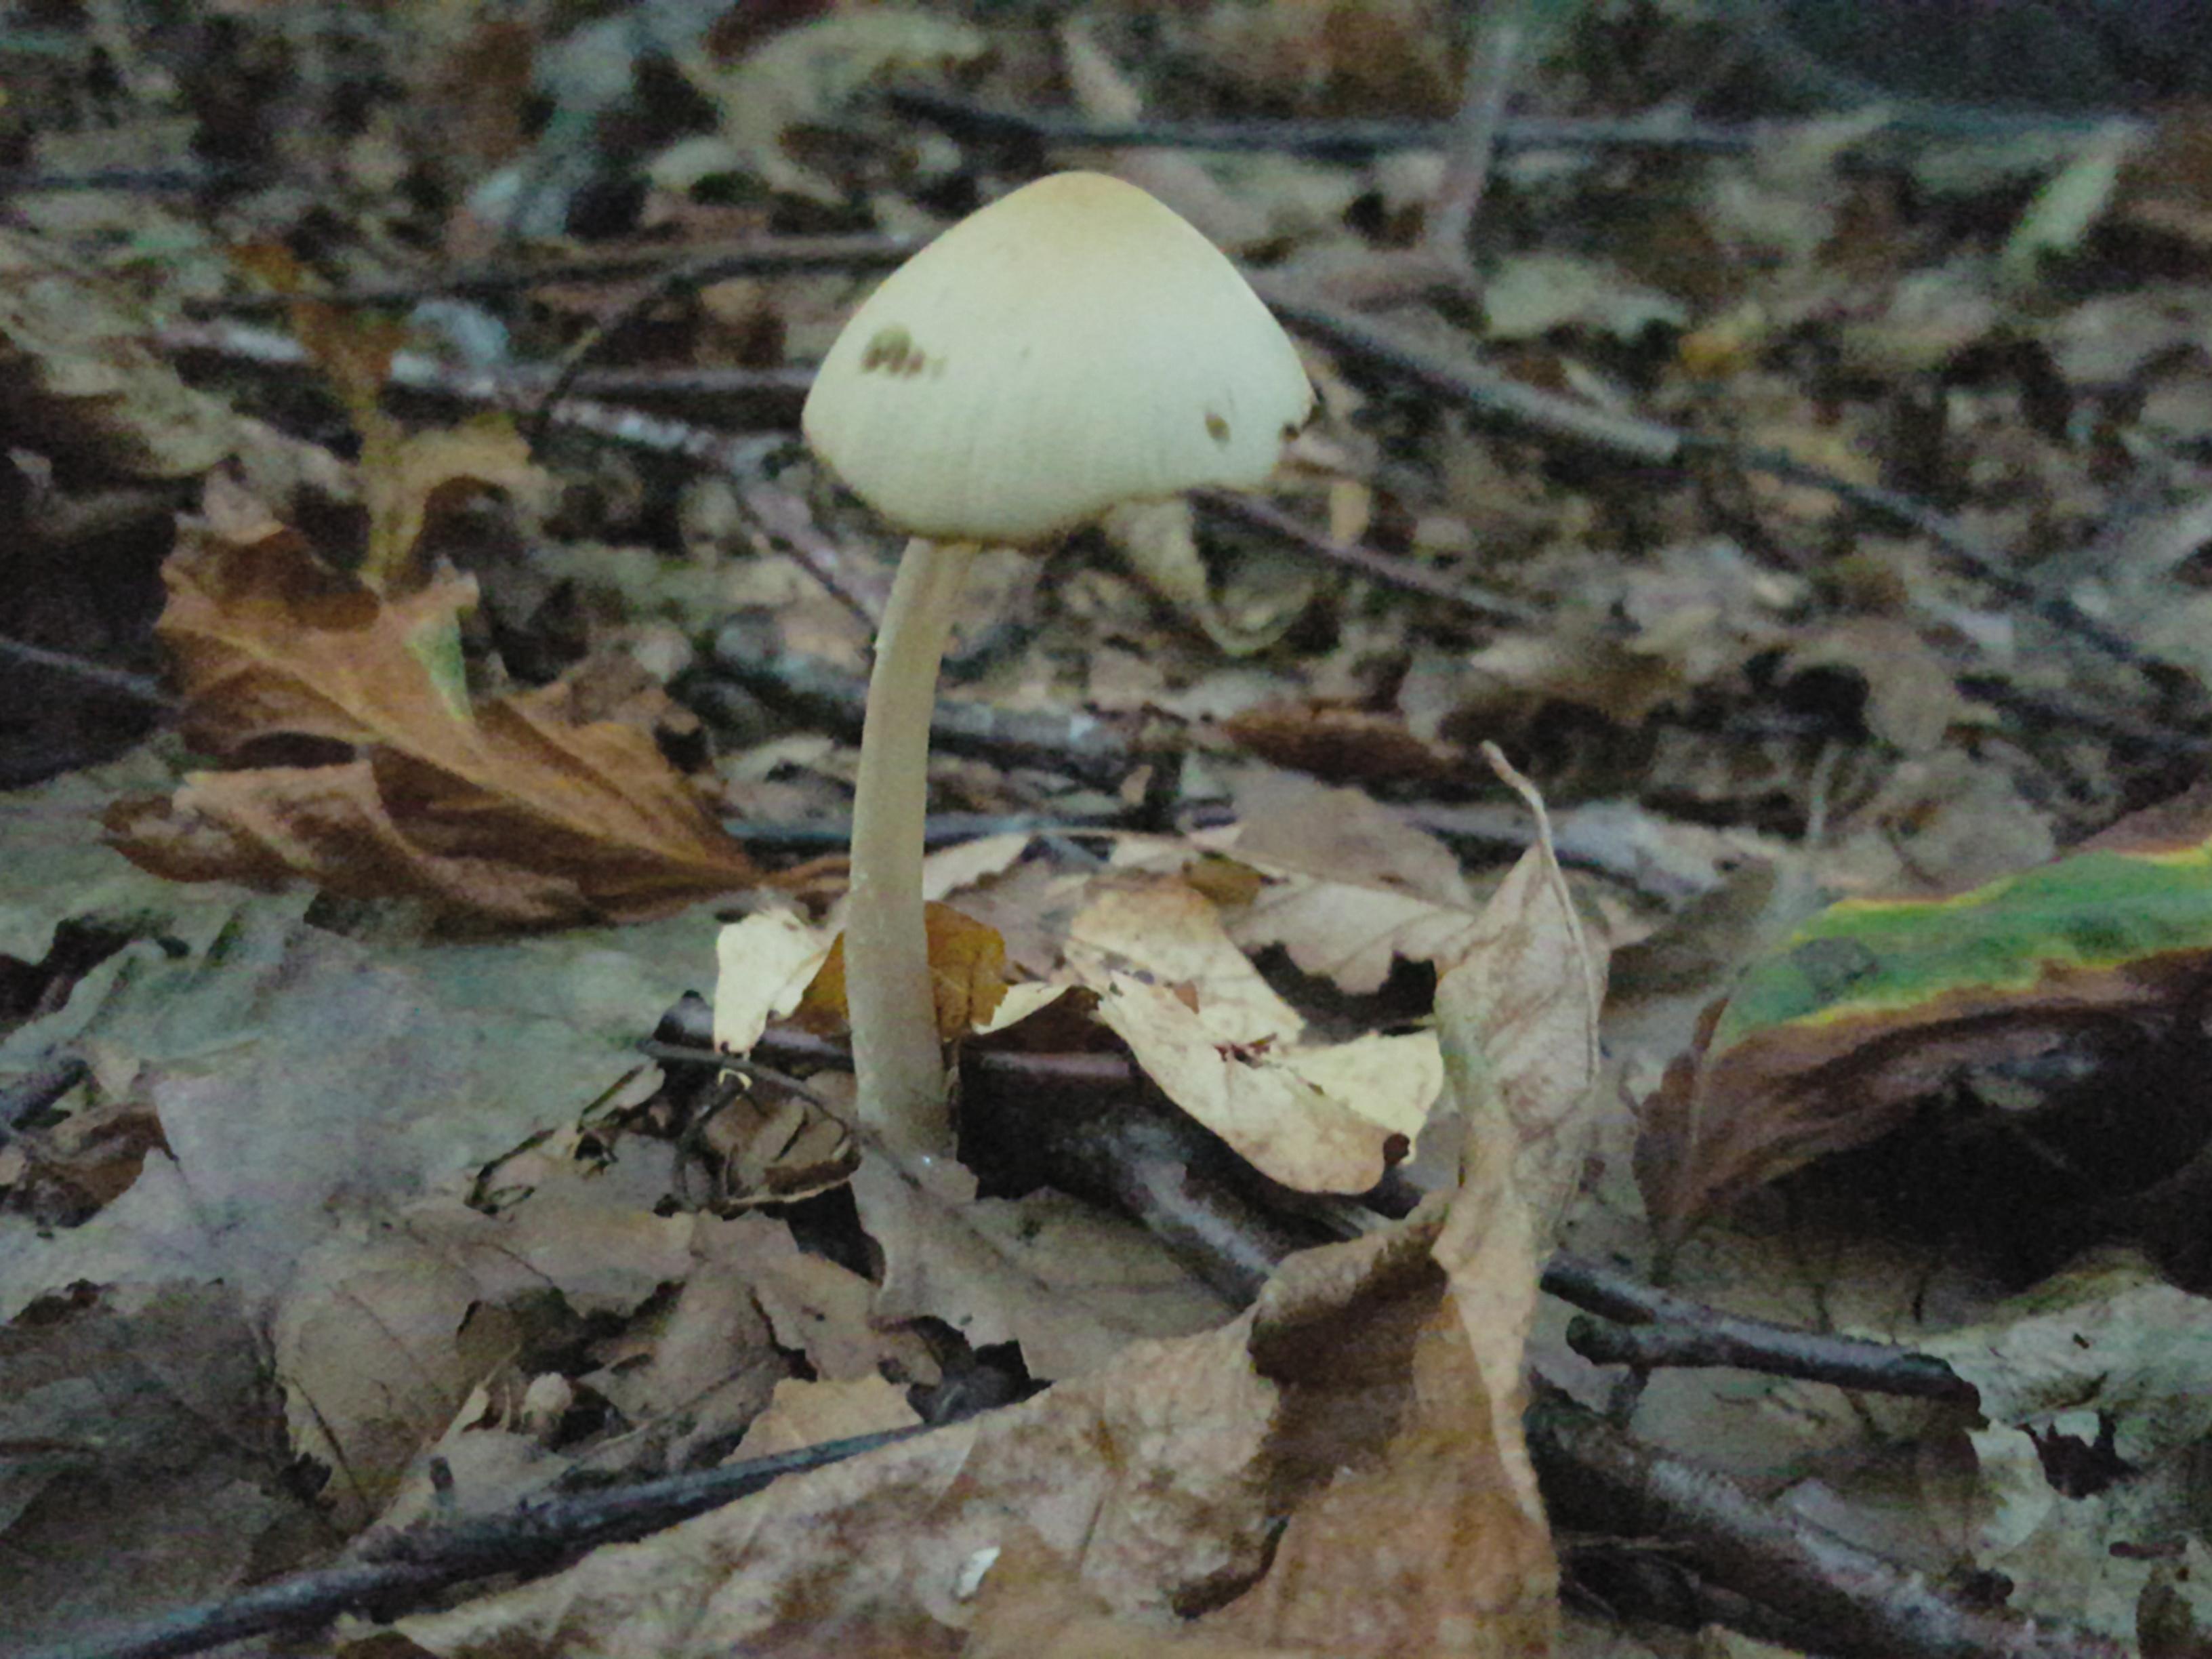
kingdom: Fungi
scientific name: Fungi
